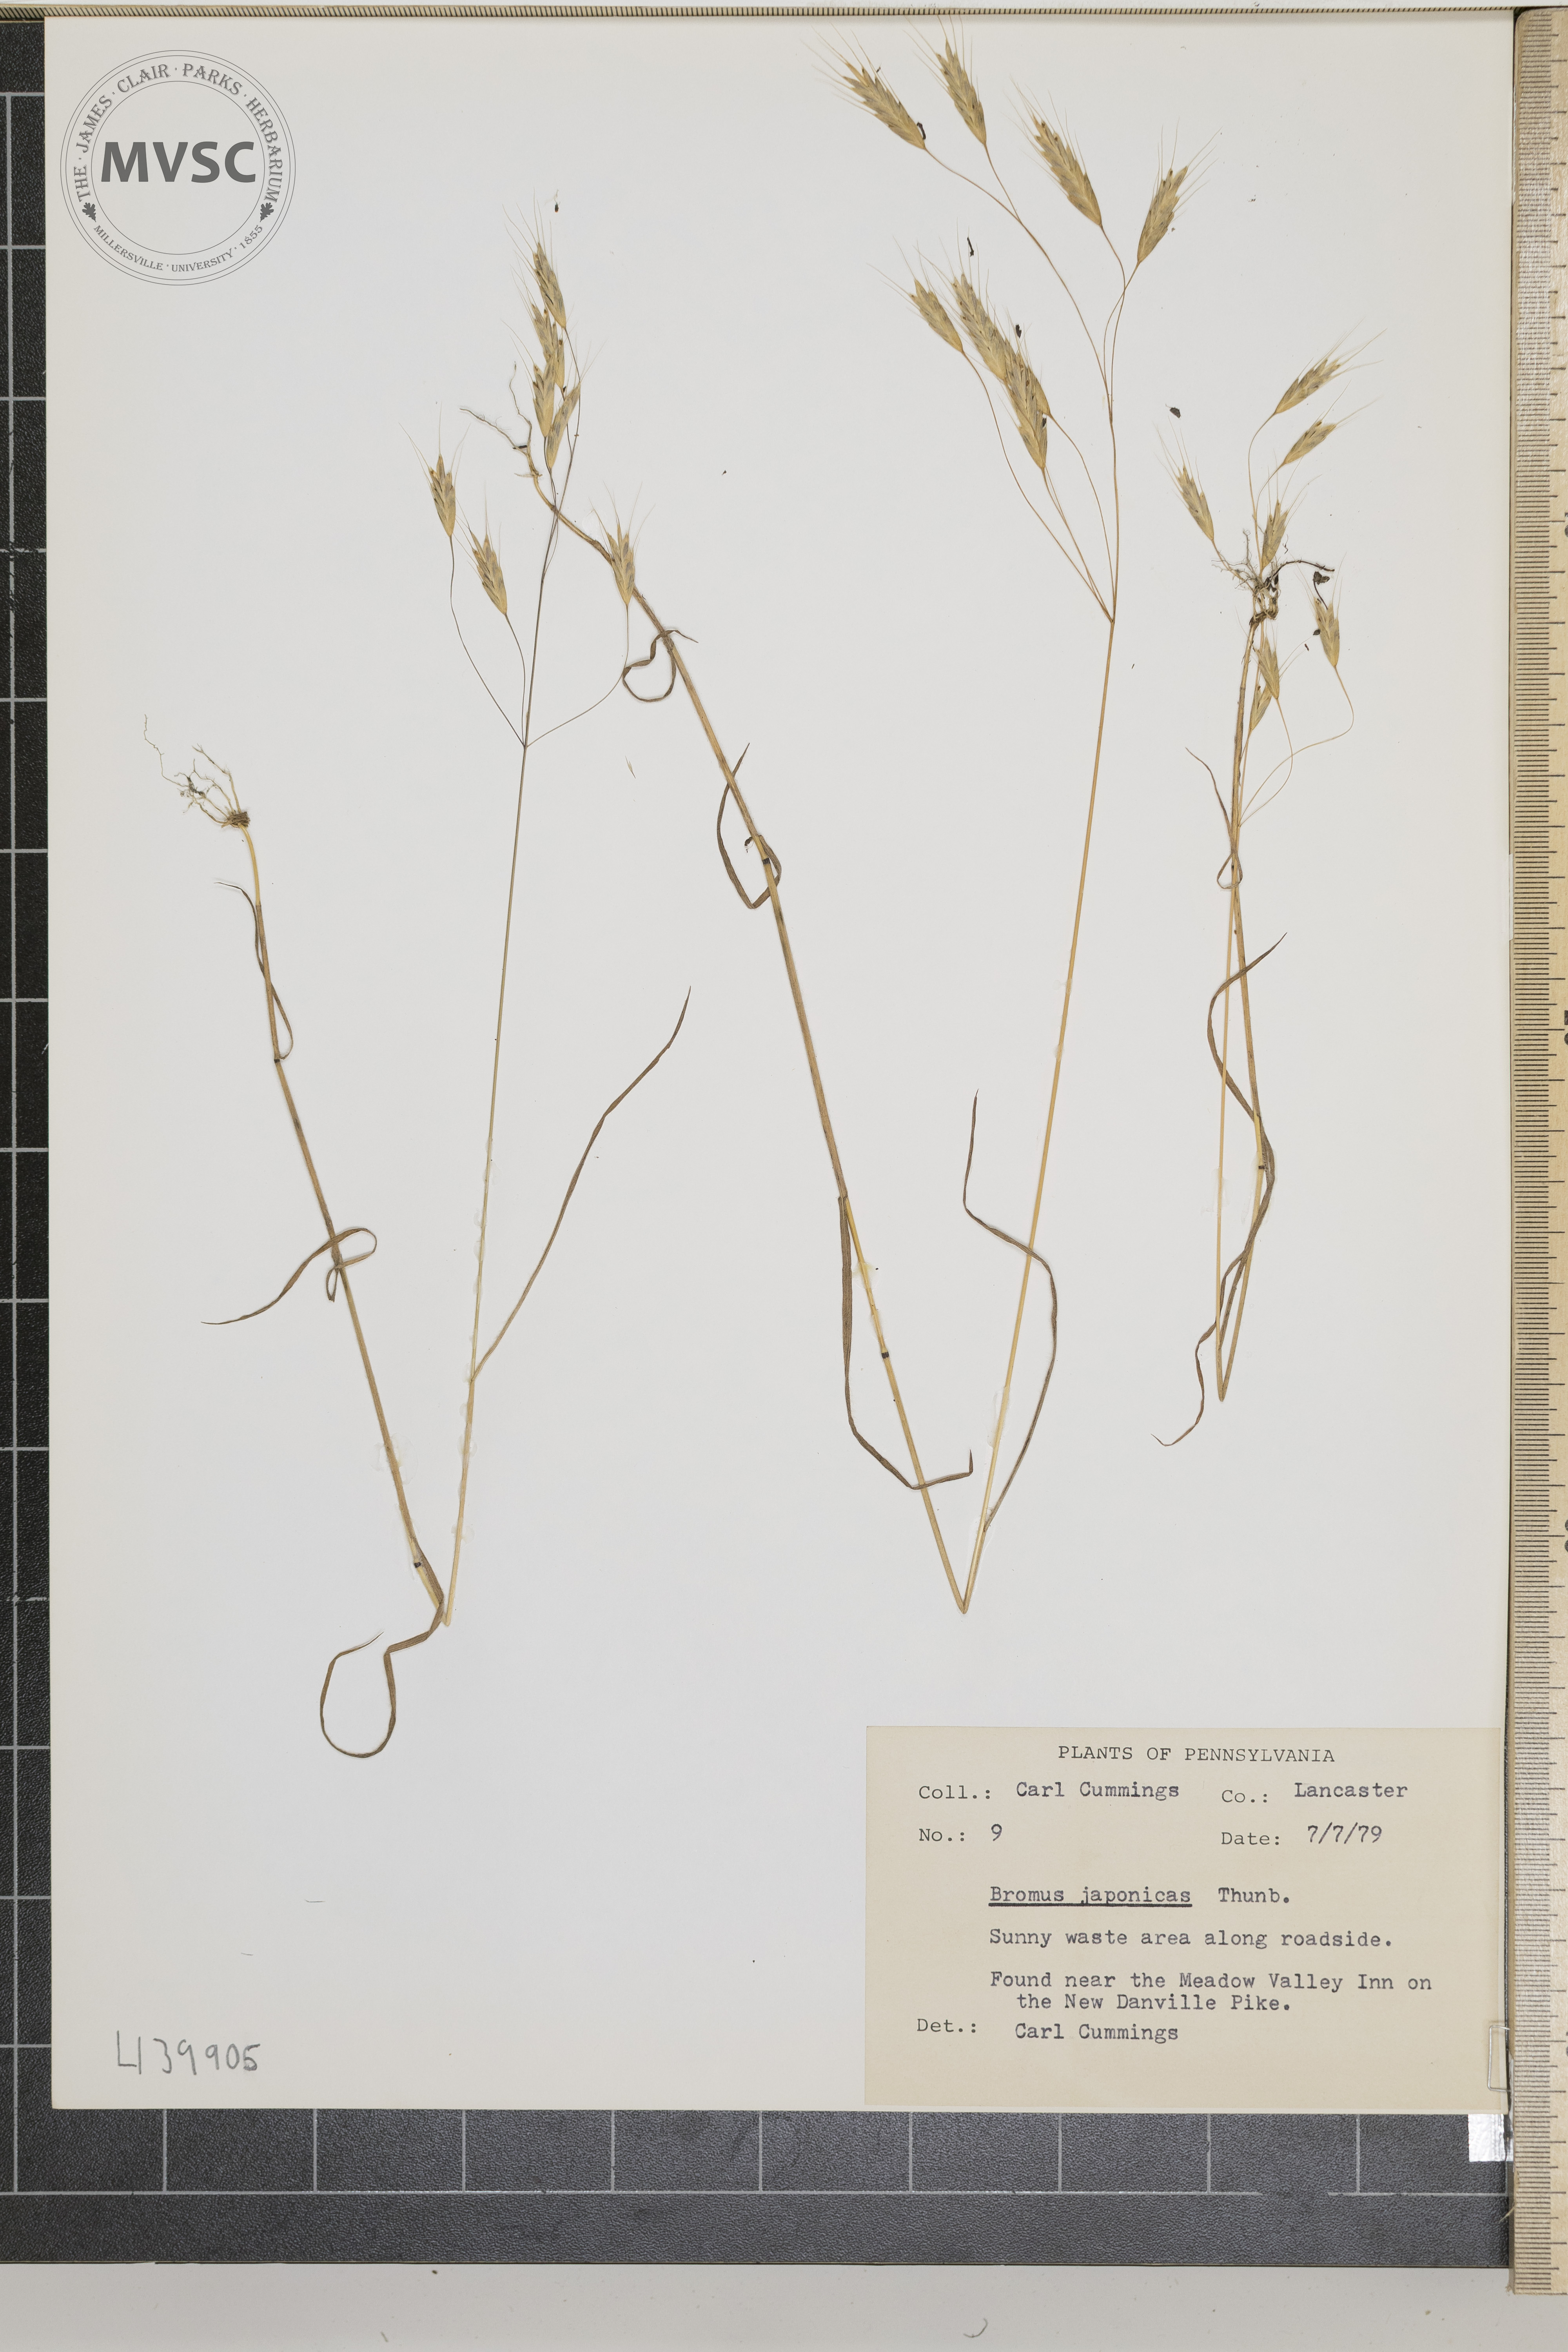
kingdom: Plantae
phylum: Tracheophyta
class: Liliopsida
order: Poales
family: Poaceae
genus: Bromus
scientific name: Bromus japonicus
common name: Japanese brome
